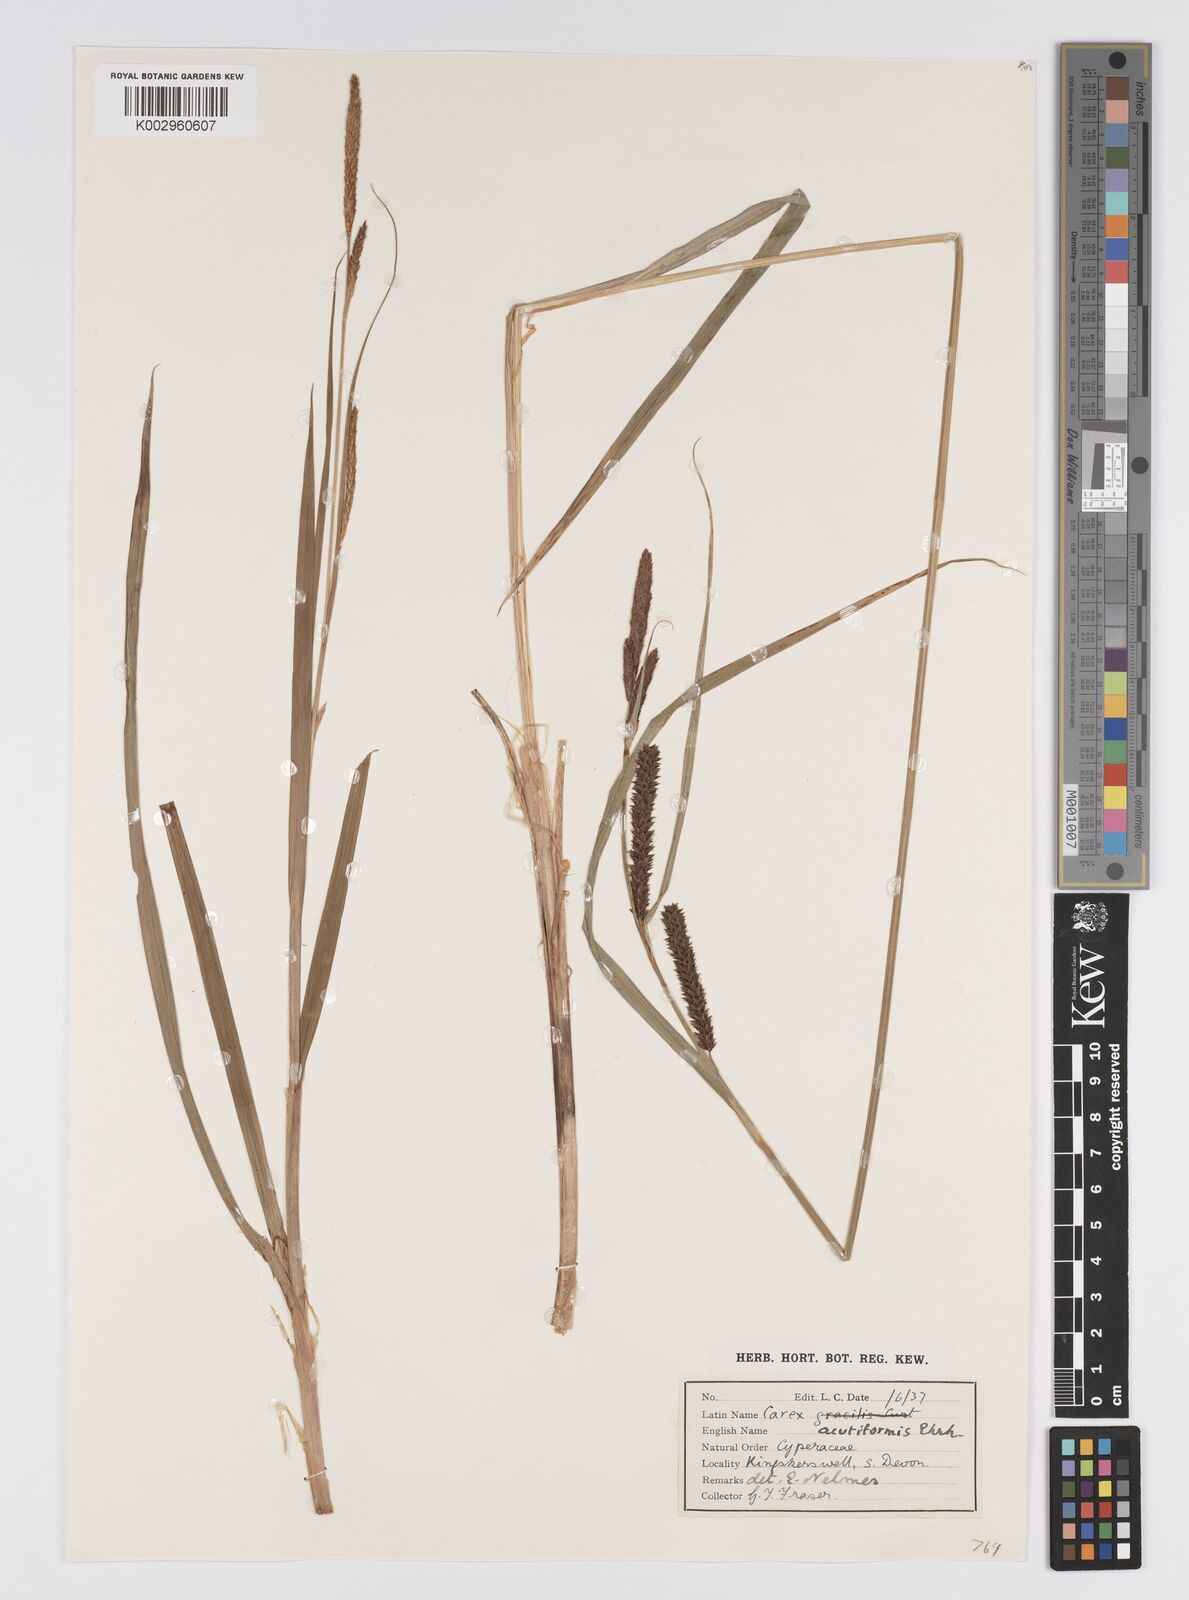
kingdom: Plantae
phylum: Tracheophyta
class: Liliopsida
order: Poales
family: Cyperaceae
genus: Carex
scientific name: Carex acutiformis
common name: Lesser pond-sedge
